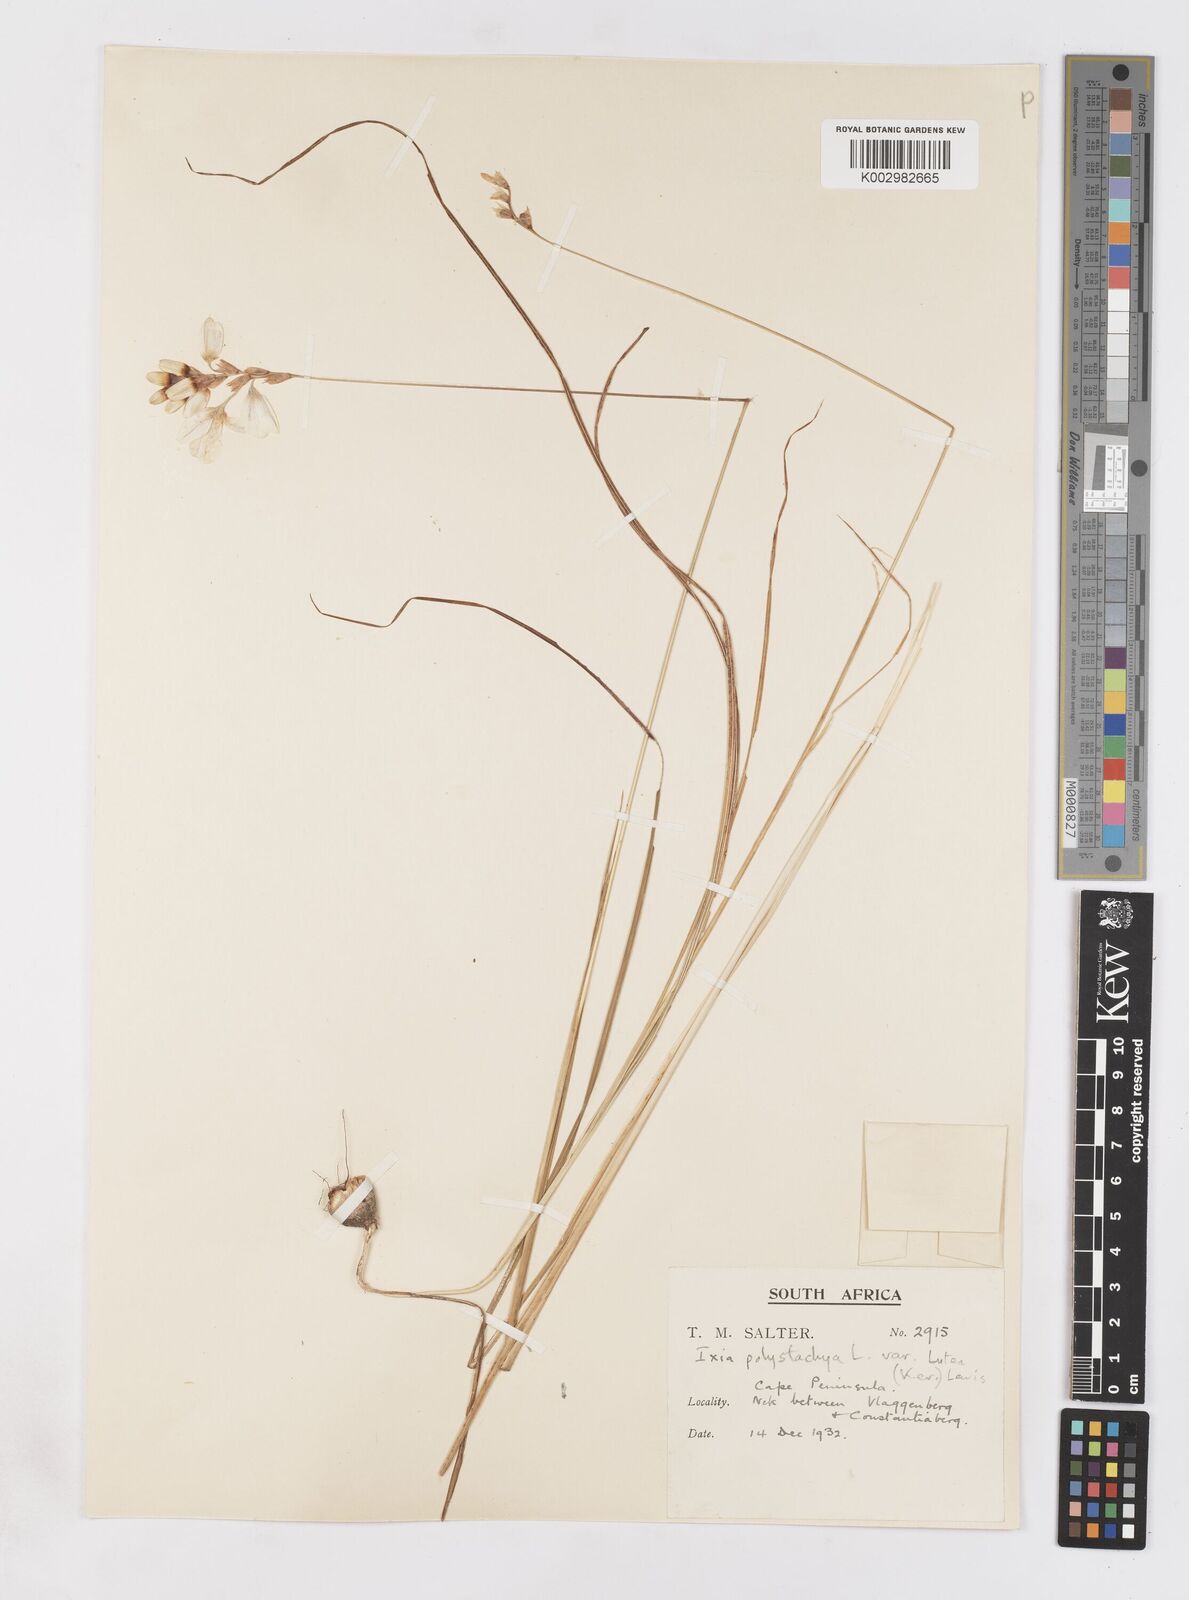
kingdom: Plantae
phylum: Tracheophyta
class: Liliopsida
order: Asparagales
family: Iridaceae
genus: Ixia
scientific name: Ixia polystachya
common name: White-and-yellow-flower cornlily
